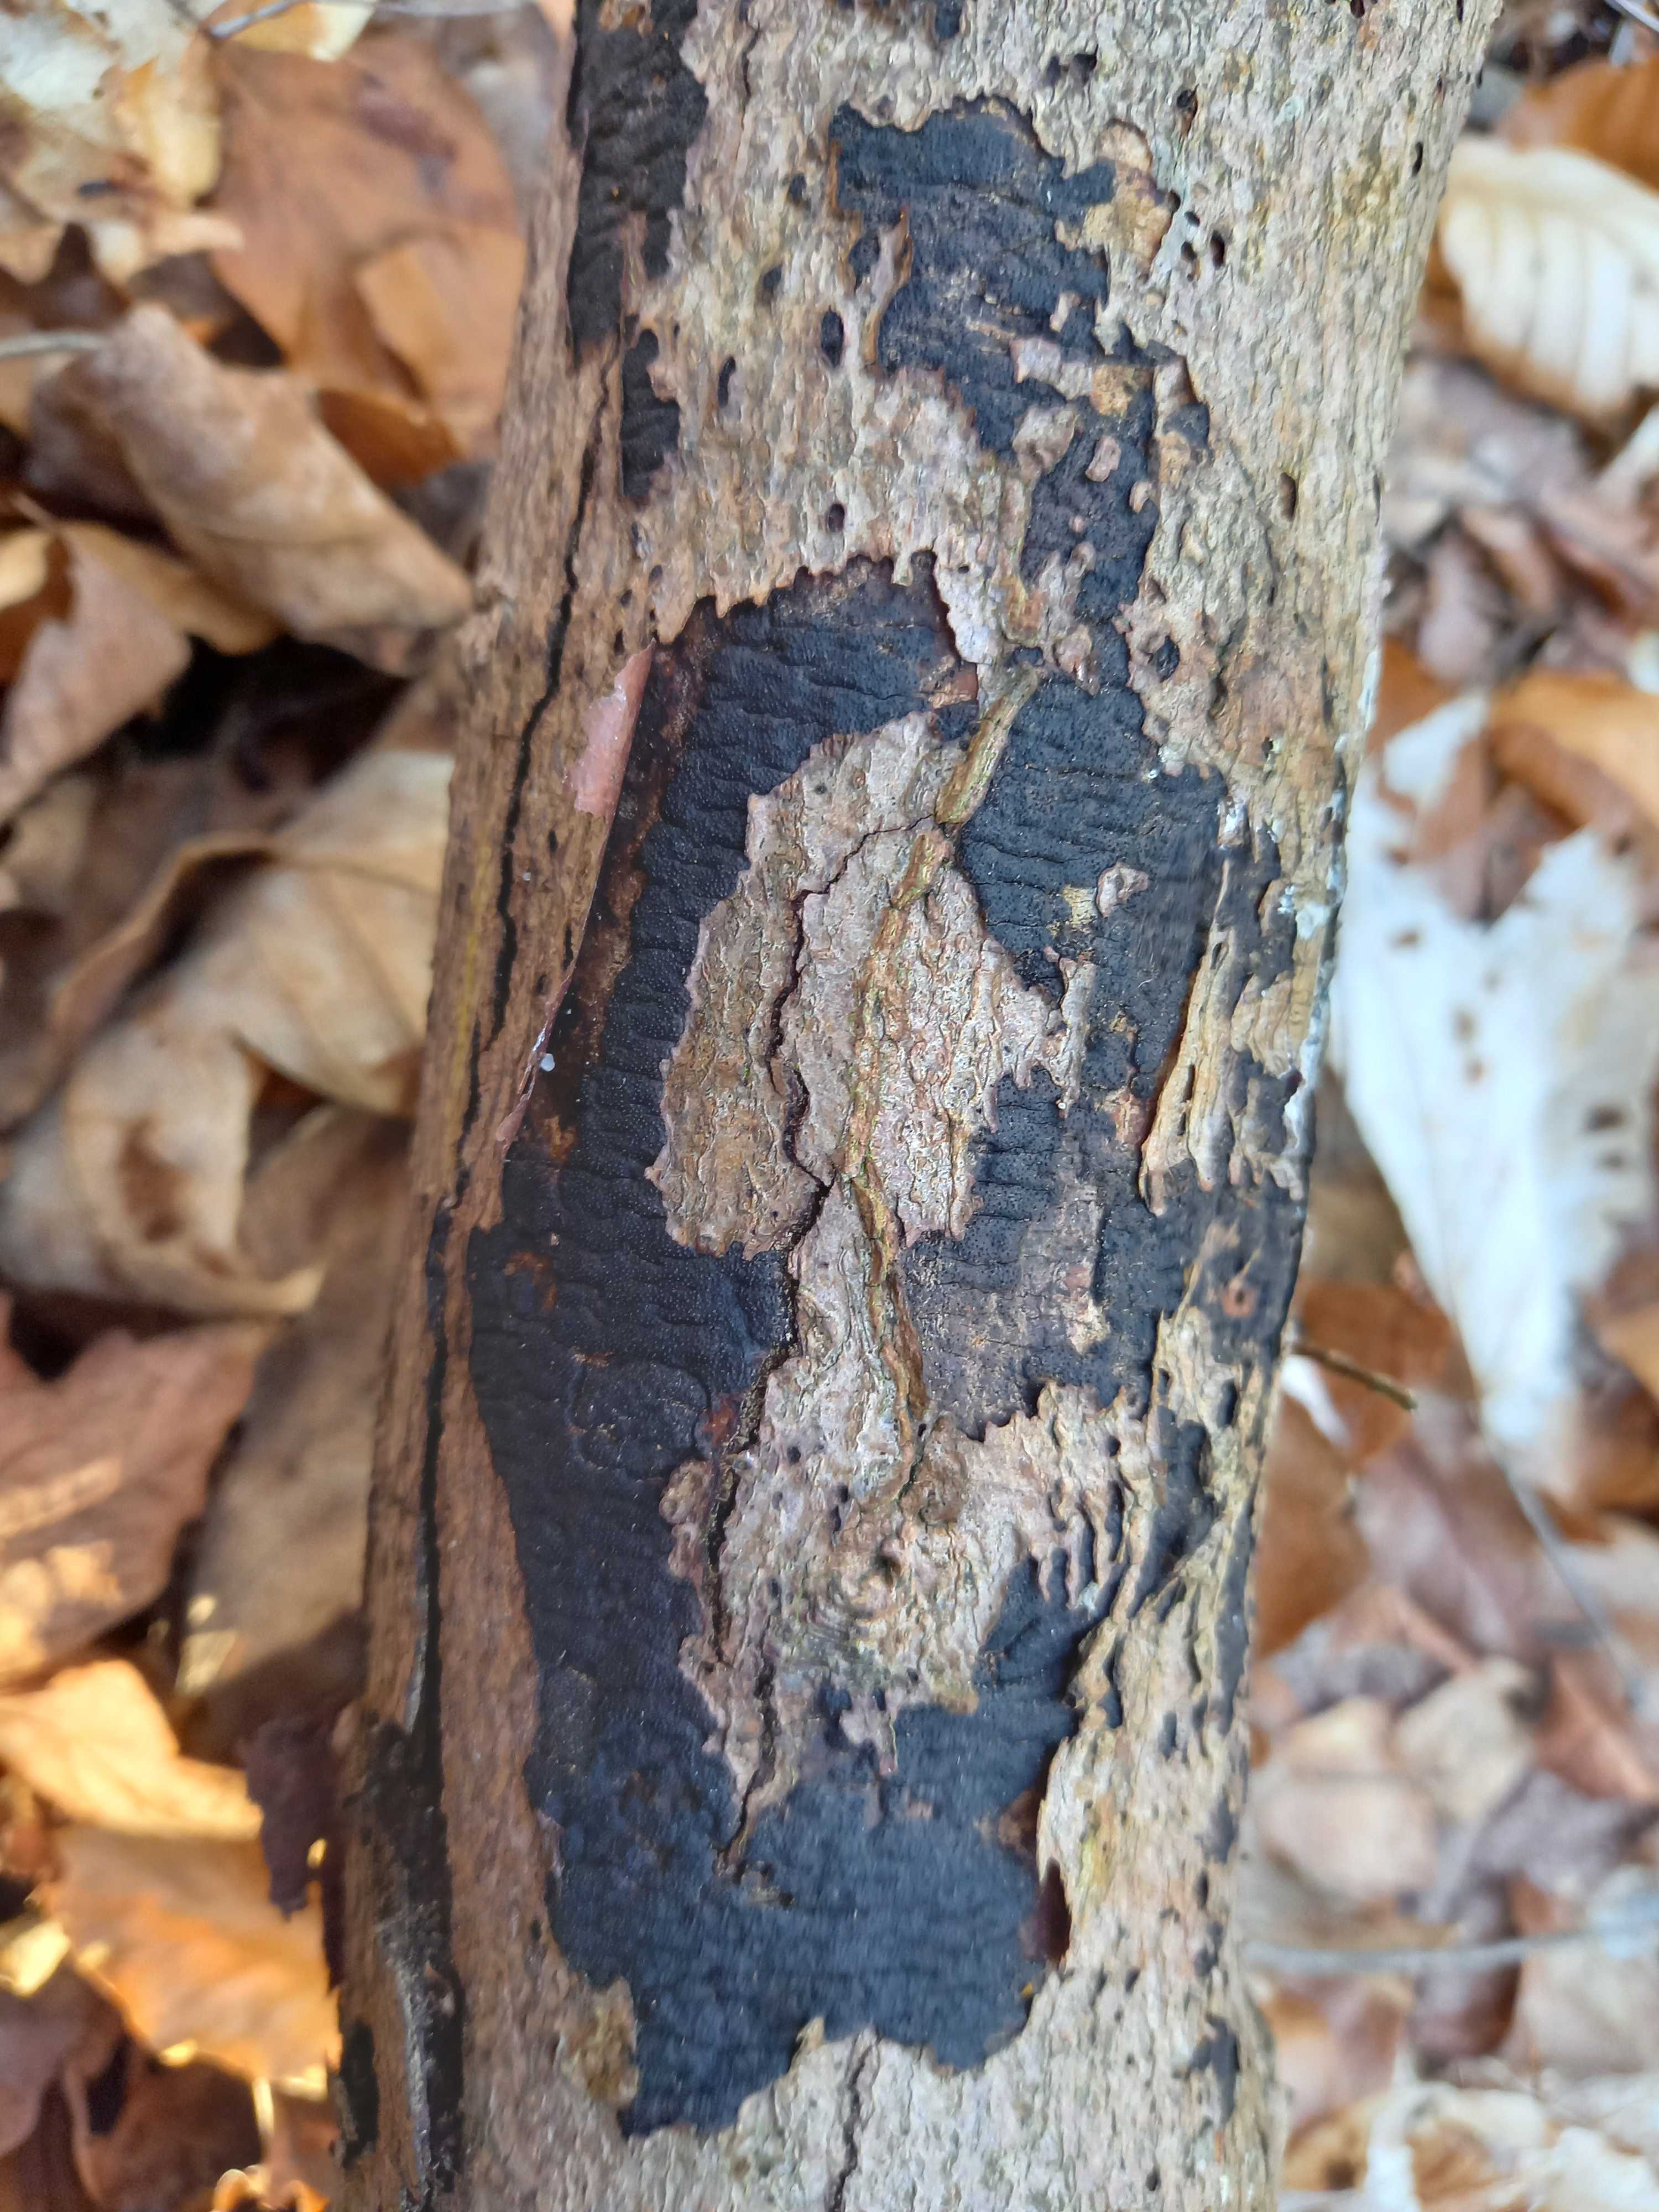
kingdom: Fungi
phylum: Ascomycota
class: Sordariomycetes
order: Xylariales
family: Diatrypaceae
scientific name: Diatrypaceae
